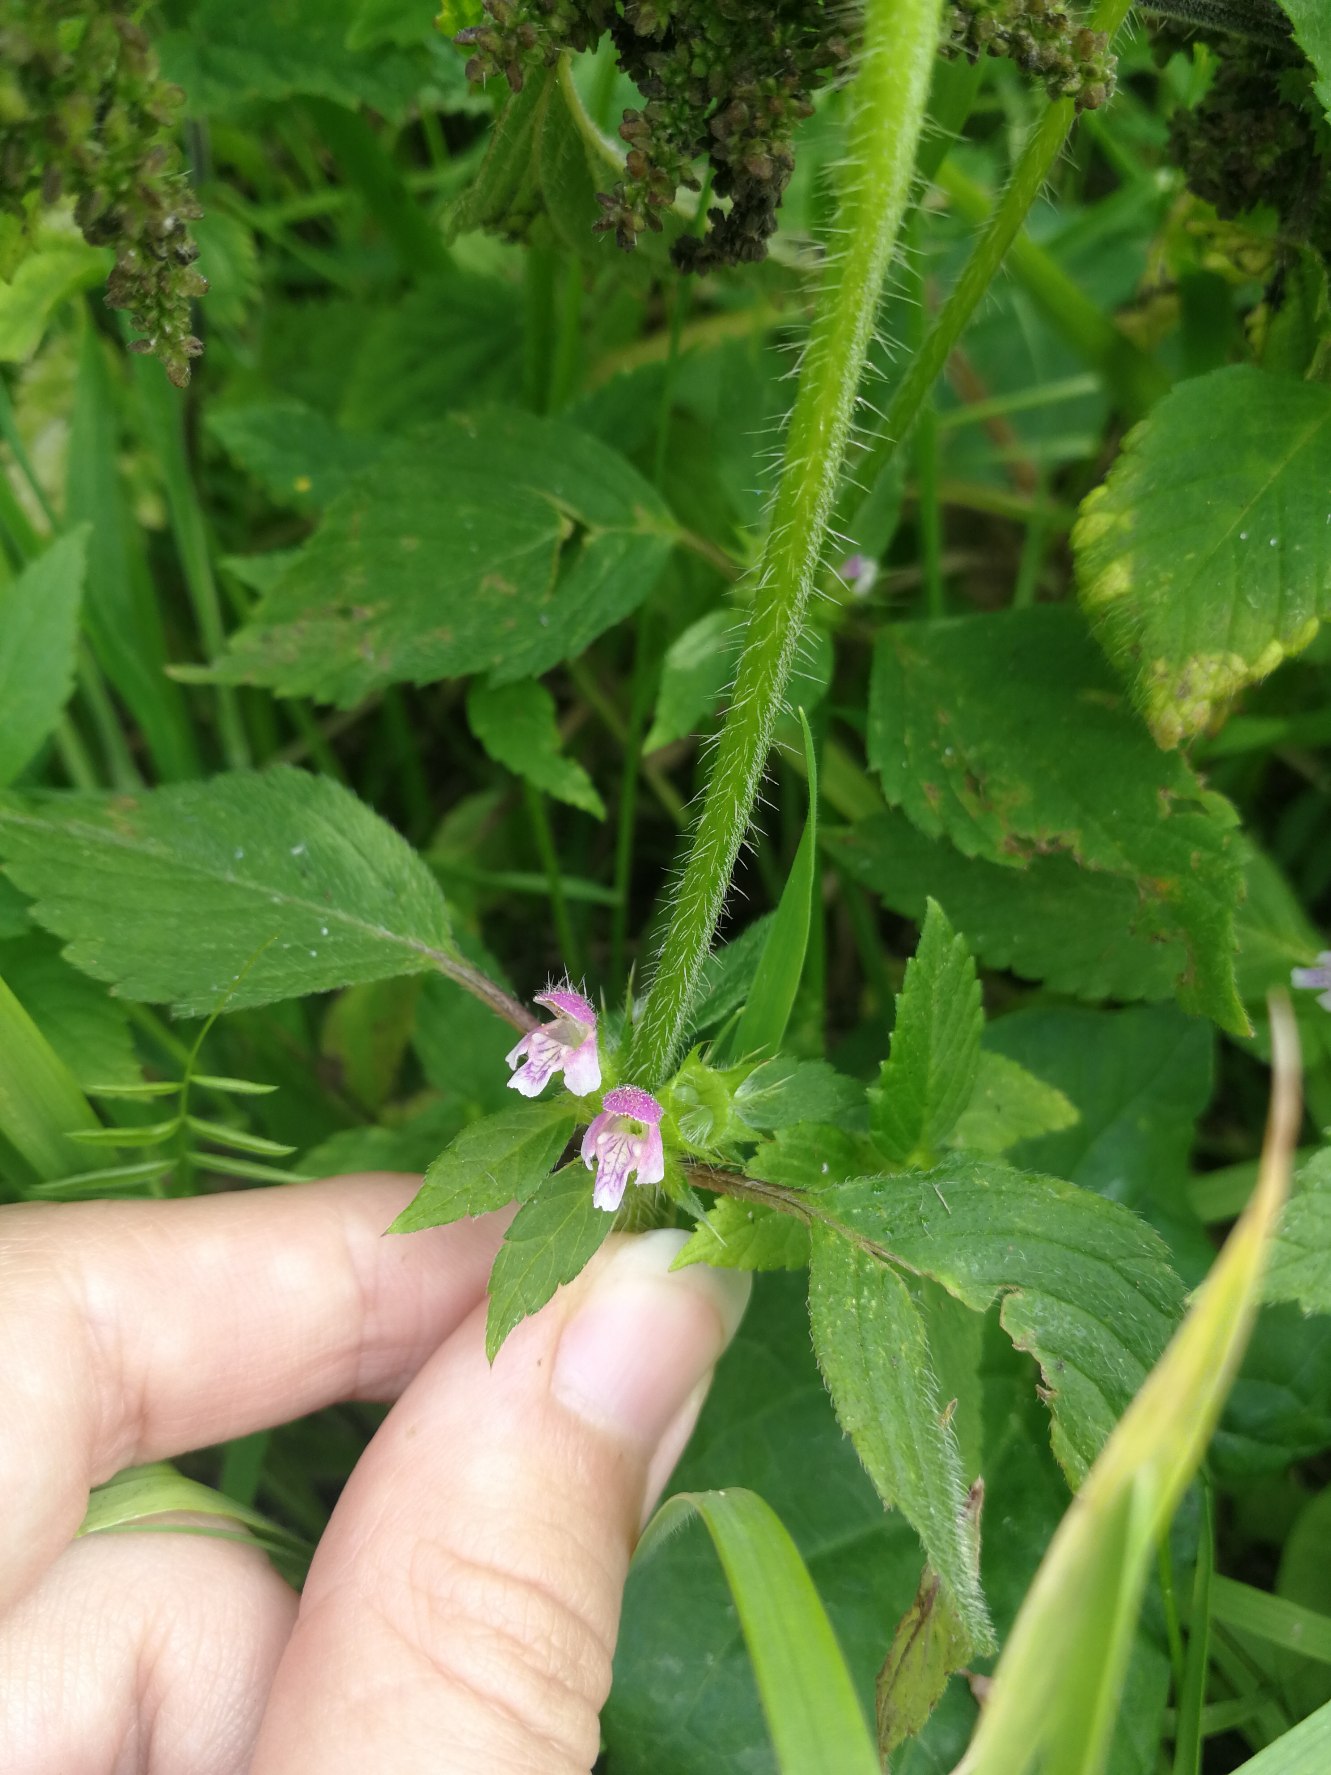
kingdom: Plantae
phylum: Tracheophyta
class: Magnoliopsida
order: Lamiales
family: Lamiaceae
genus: Galeopsis
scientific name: Galeopsis bifida
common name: Skov-hanekro
